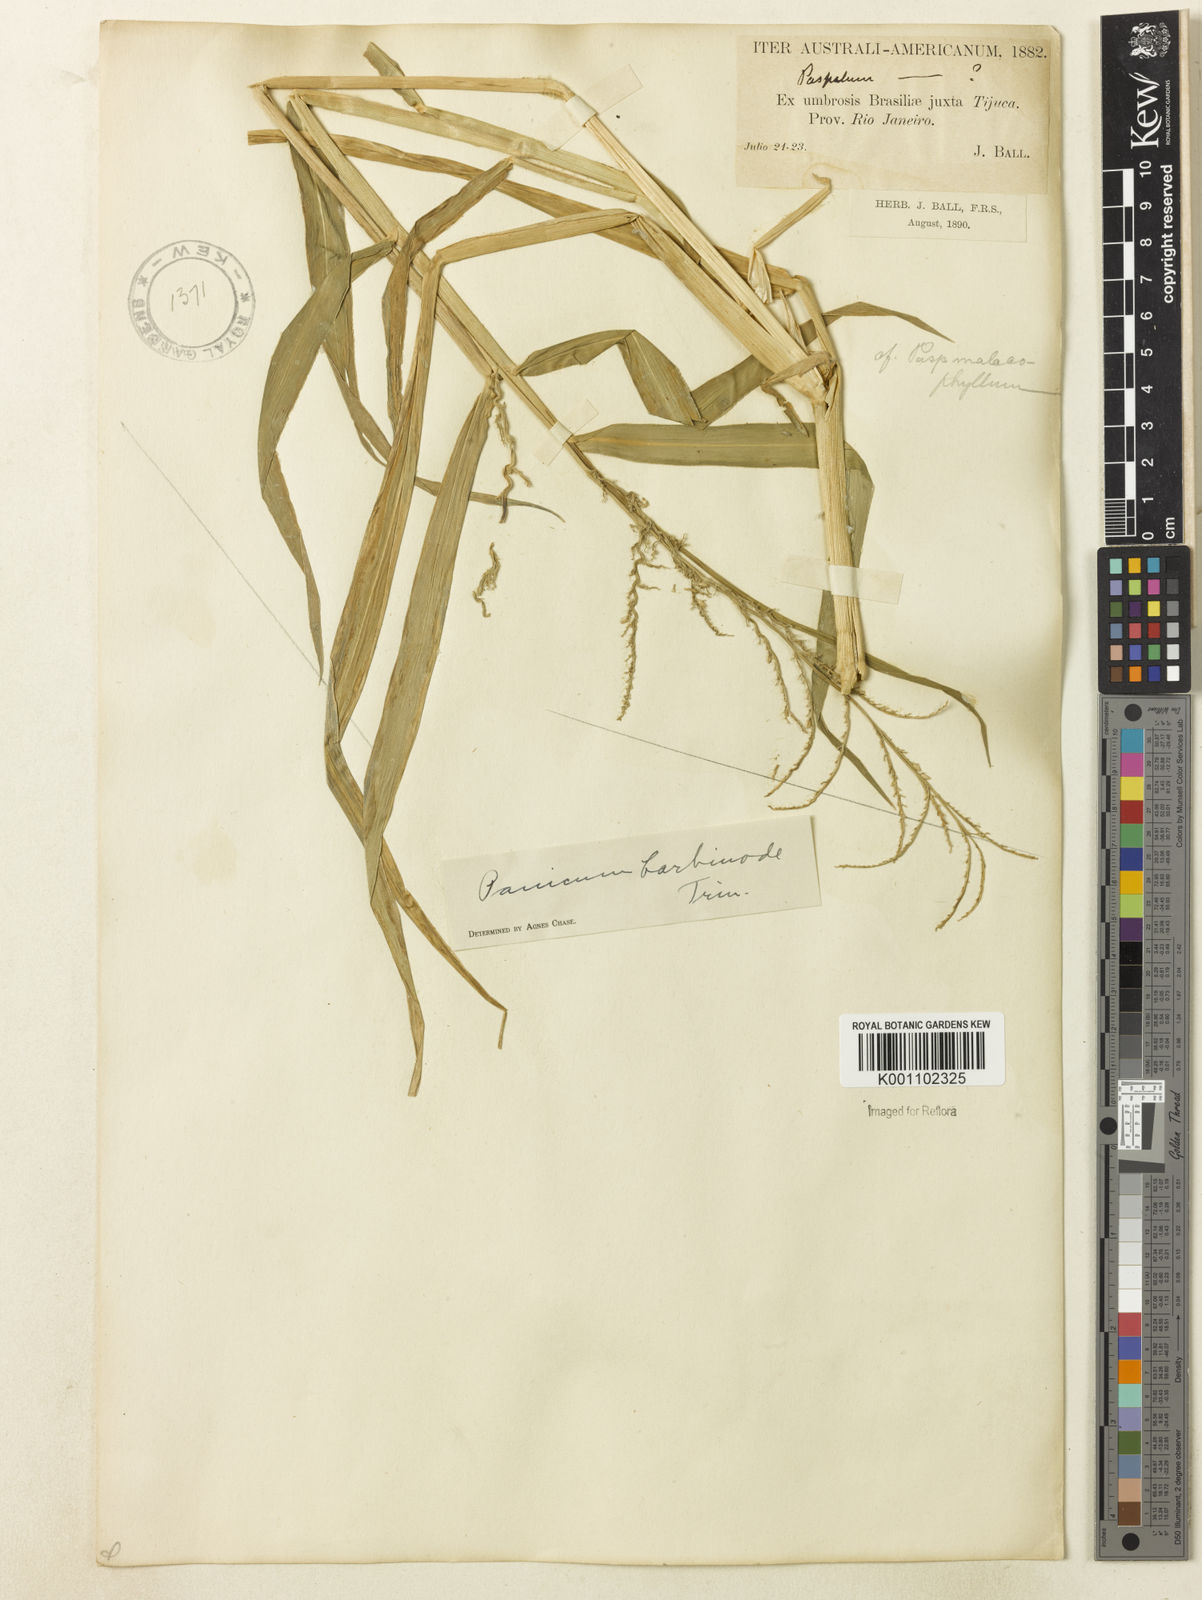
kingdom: Plantae
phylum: Tracheophyta
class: Liliopsida
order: Poales
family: Poaceae
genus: Urochloa
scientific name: Urochloa mutica
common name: Para grass
